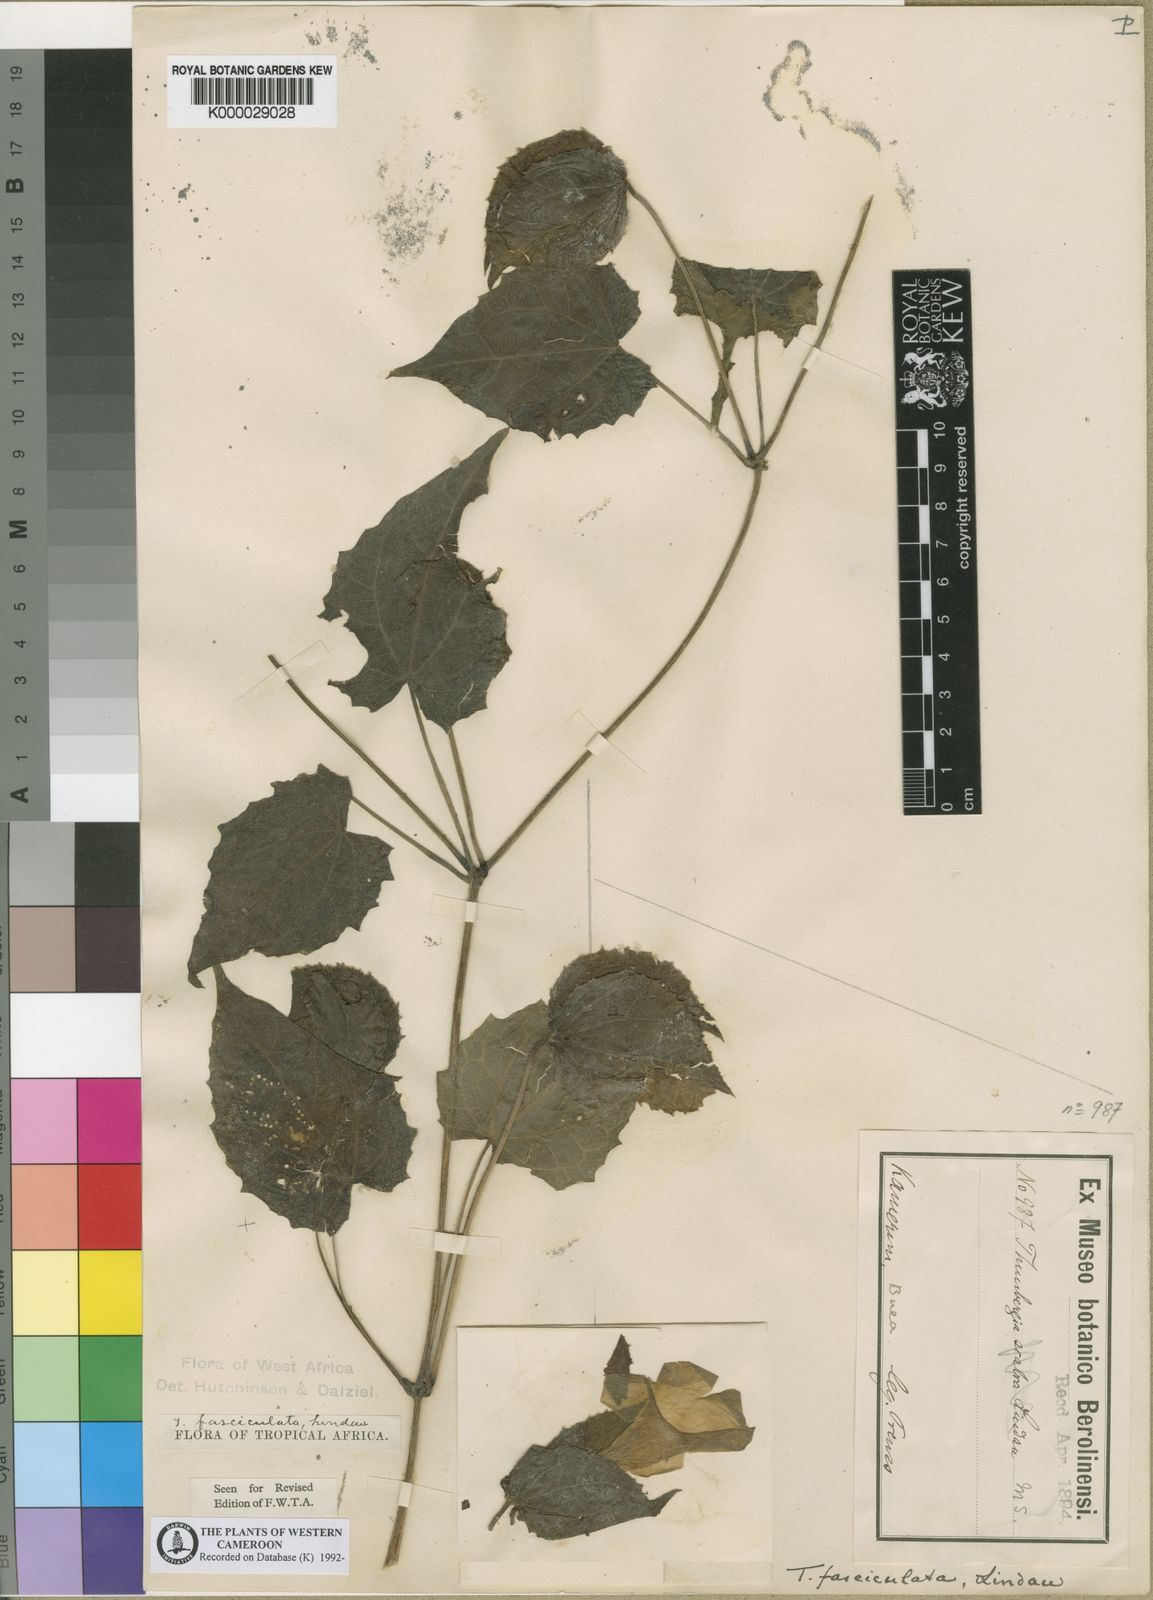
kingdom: Plantae
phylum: Tracheophyta
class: Magnoliopsida
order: Lamiales
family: Acanthaceae
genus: Thunbergia
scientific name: Thunbergia fasciculata
